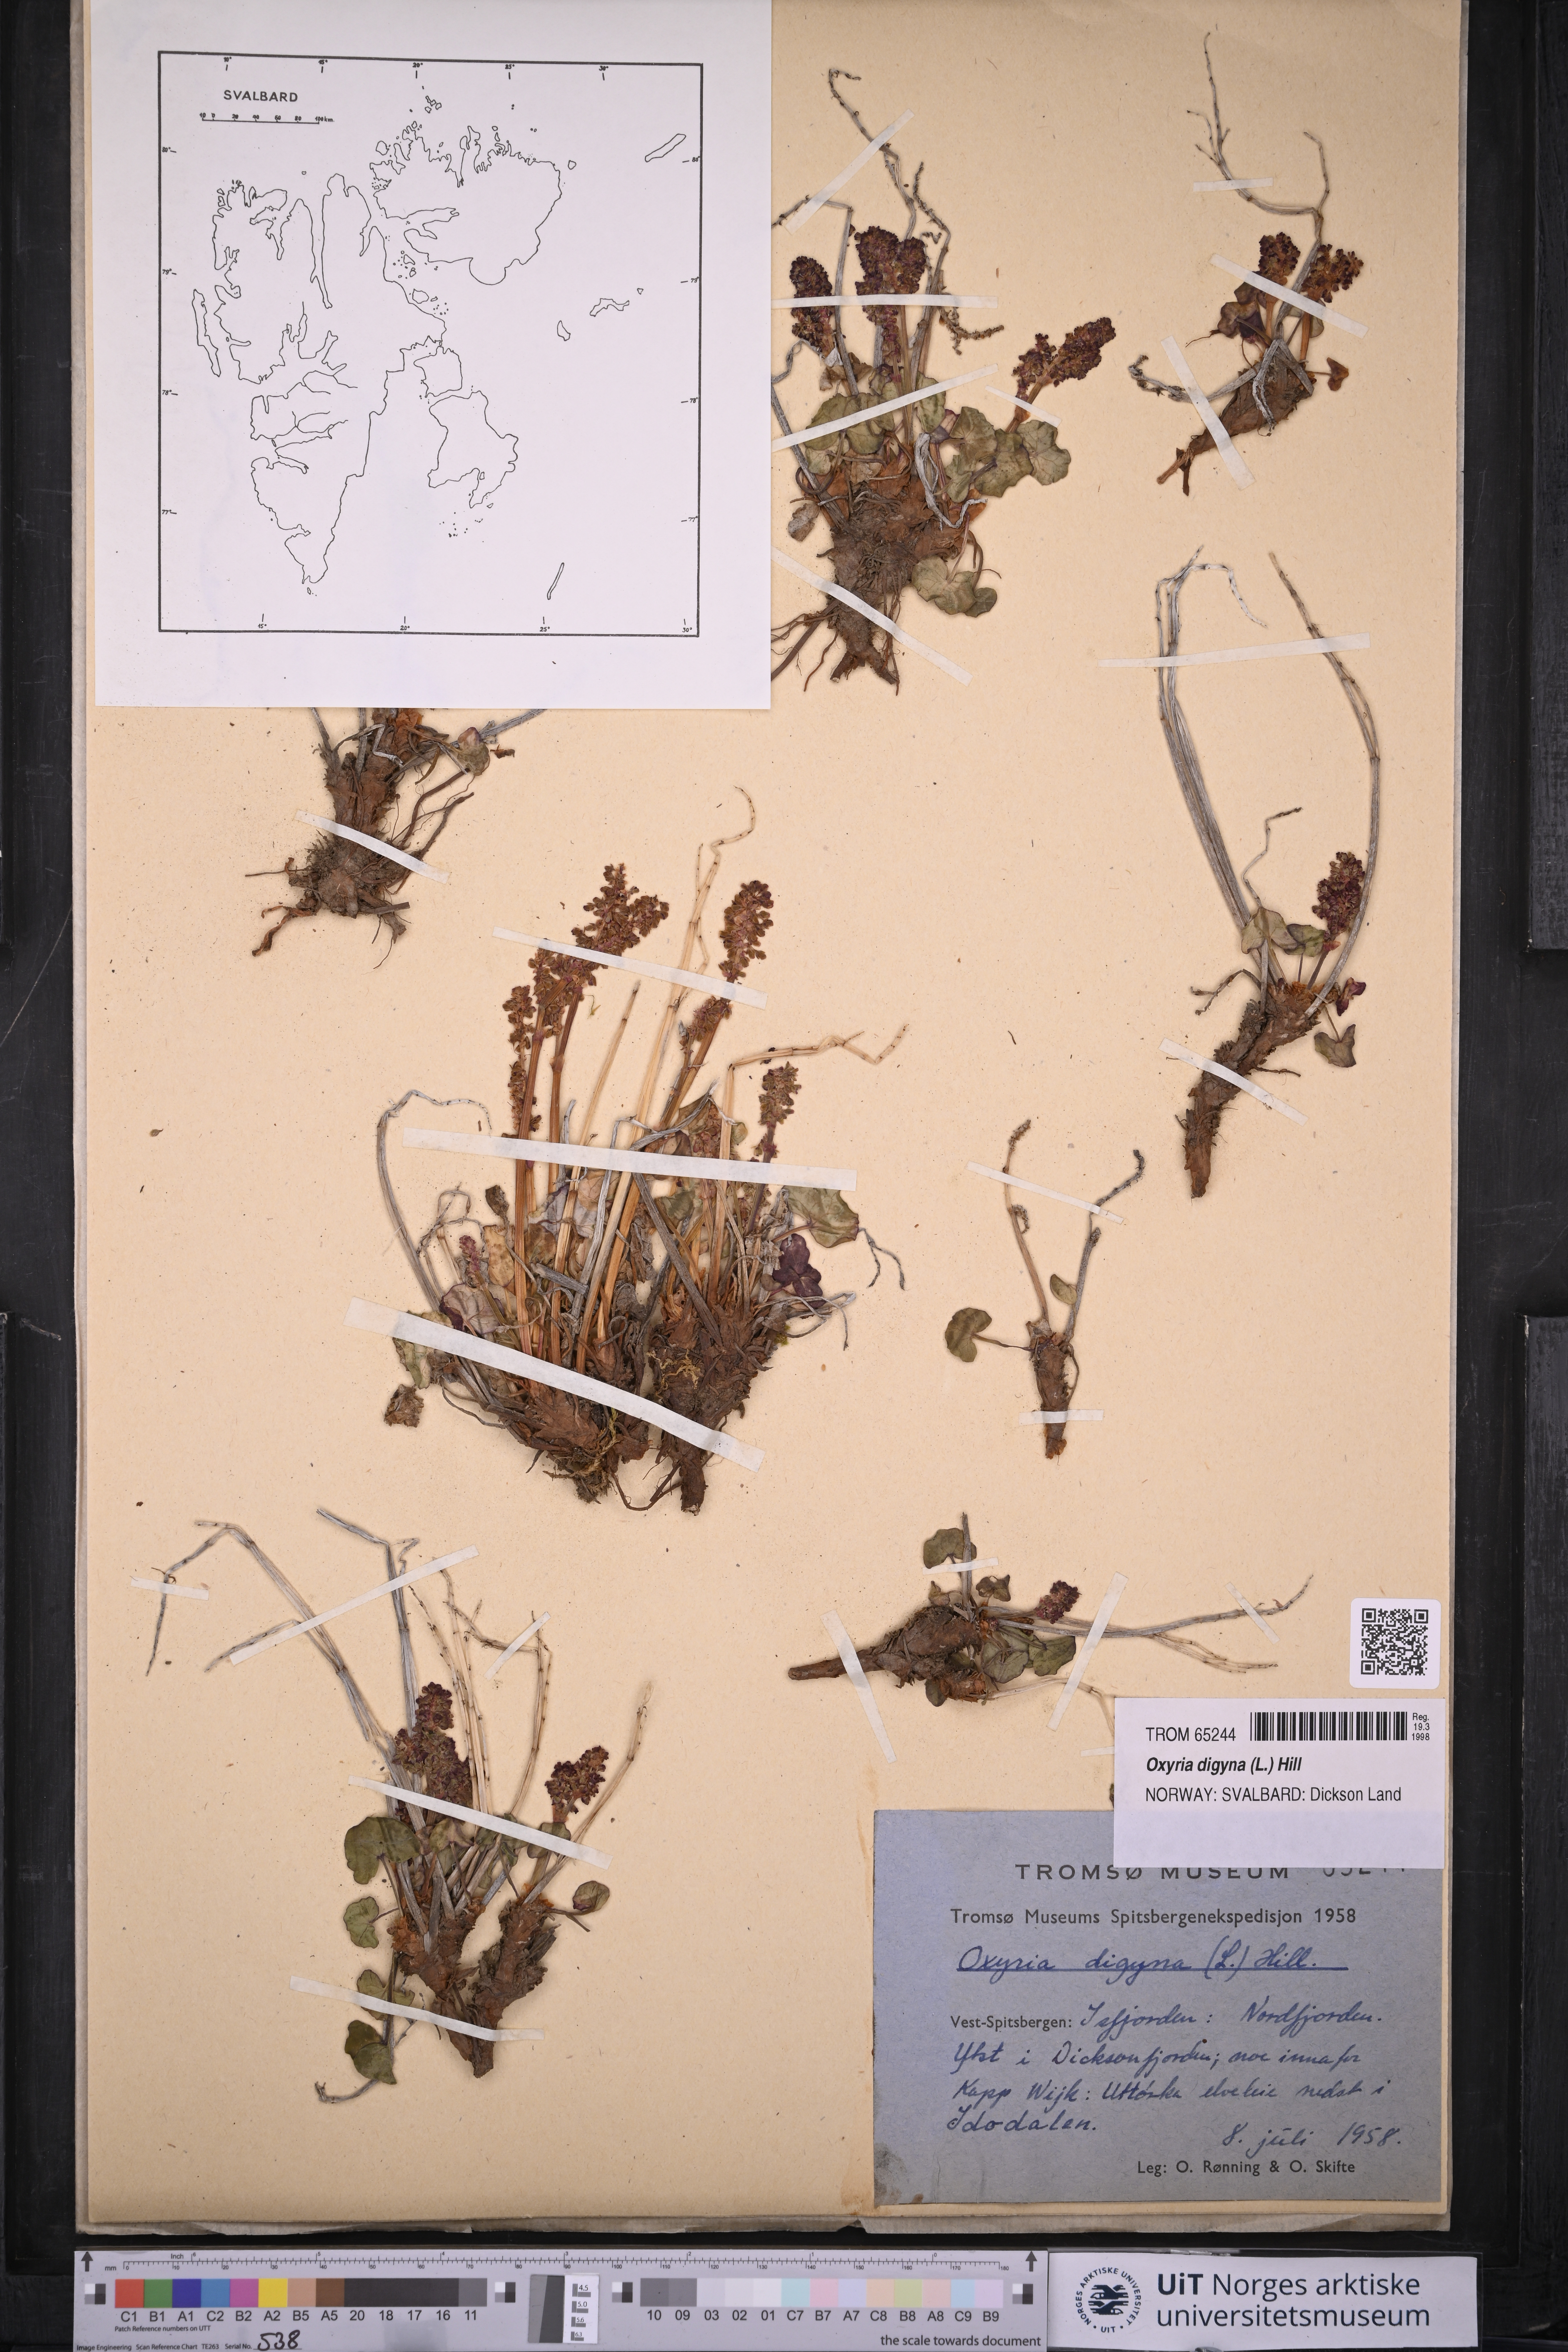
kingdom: Plantae
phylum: Tracheophyta
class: Magnoliopsida
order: Caryophyllales
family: Polygonaceae
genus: Oxyria
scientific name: Oxyria digyna
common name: Alpine mountain-sorrel
